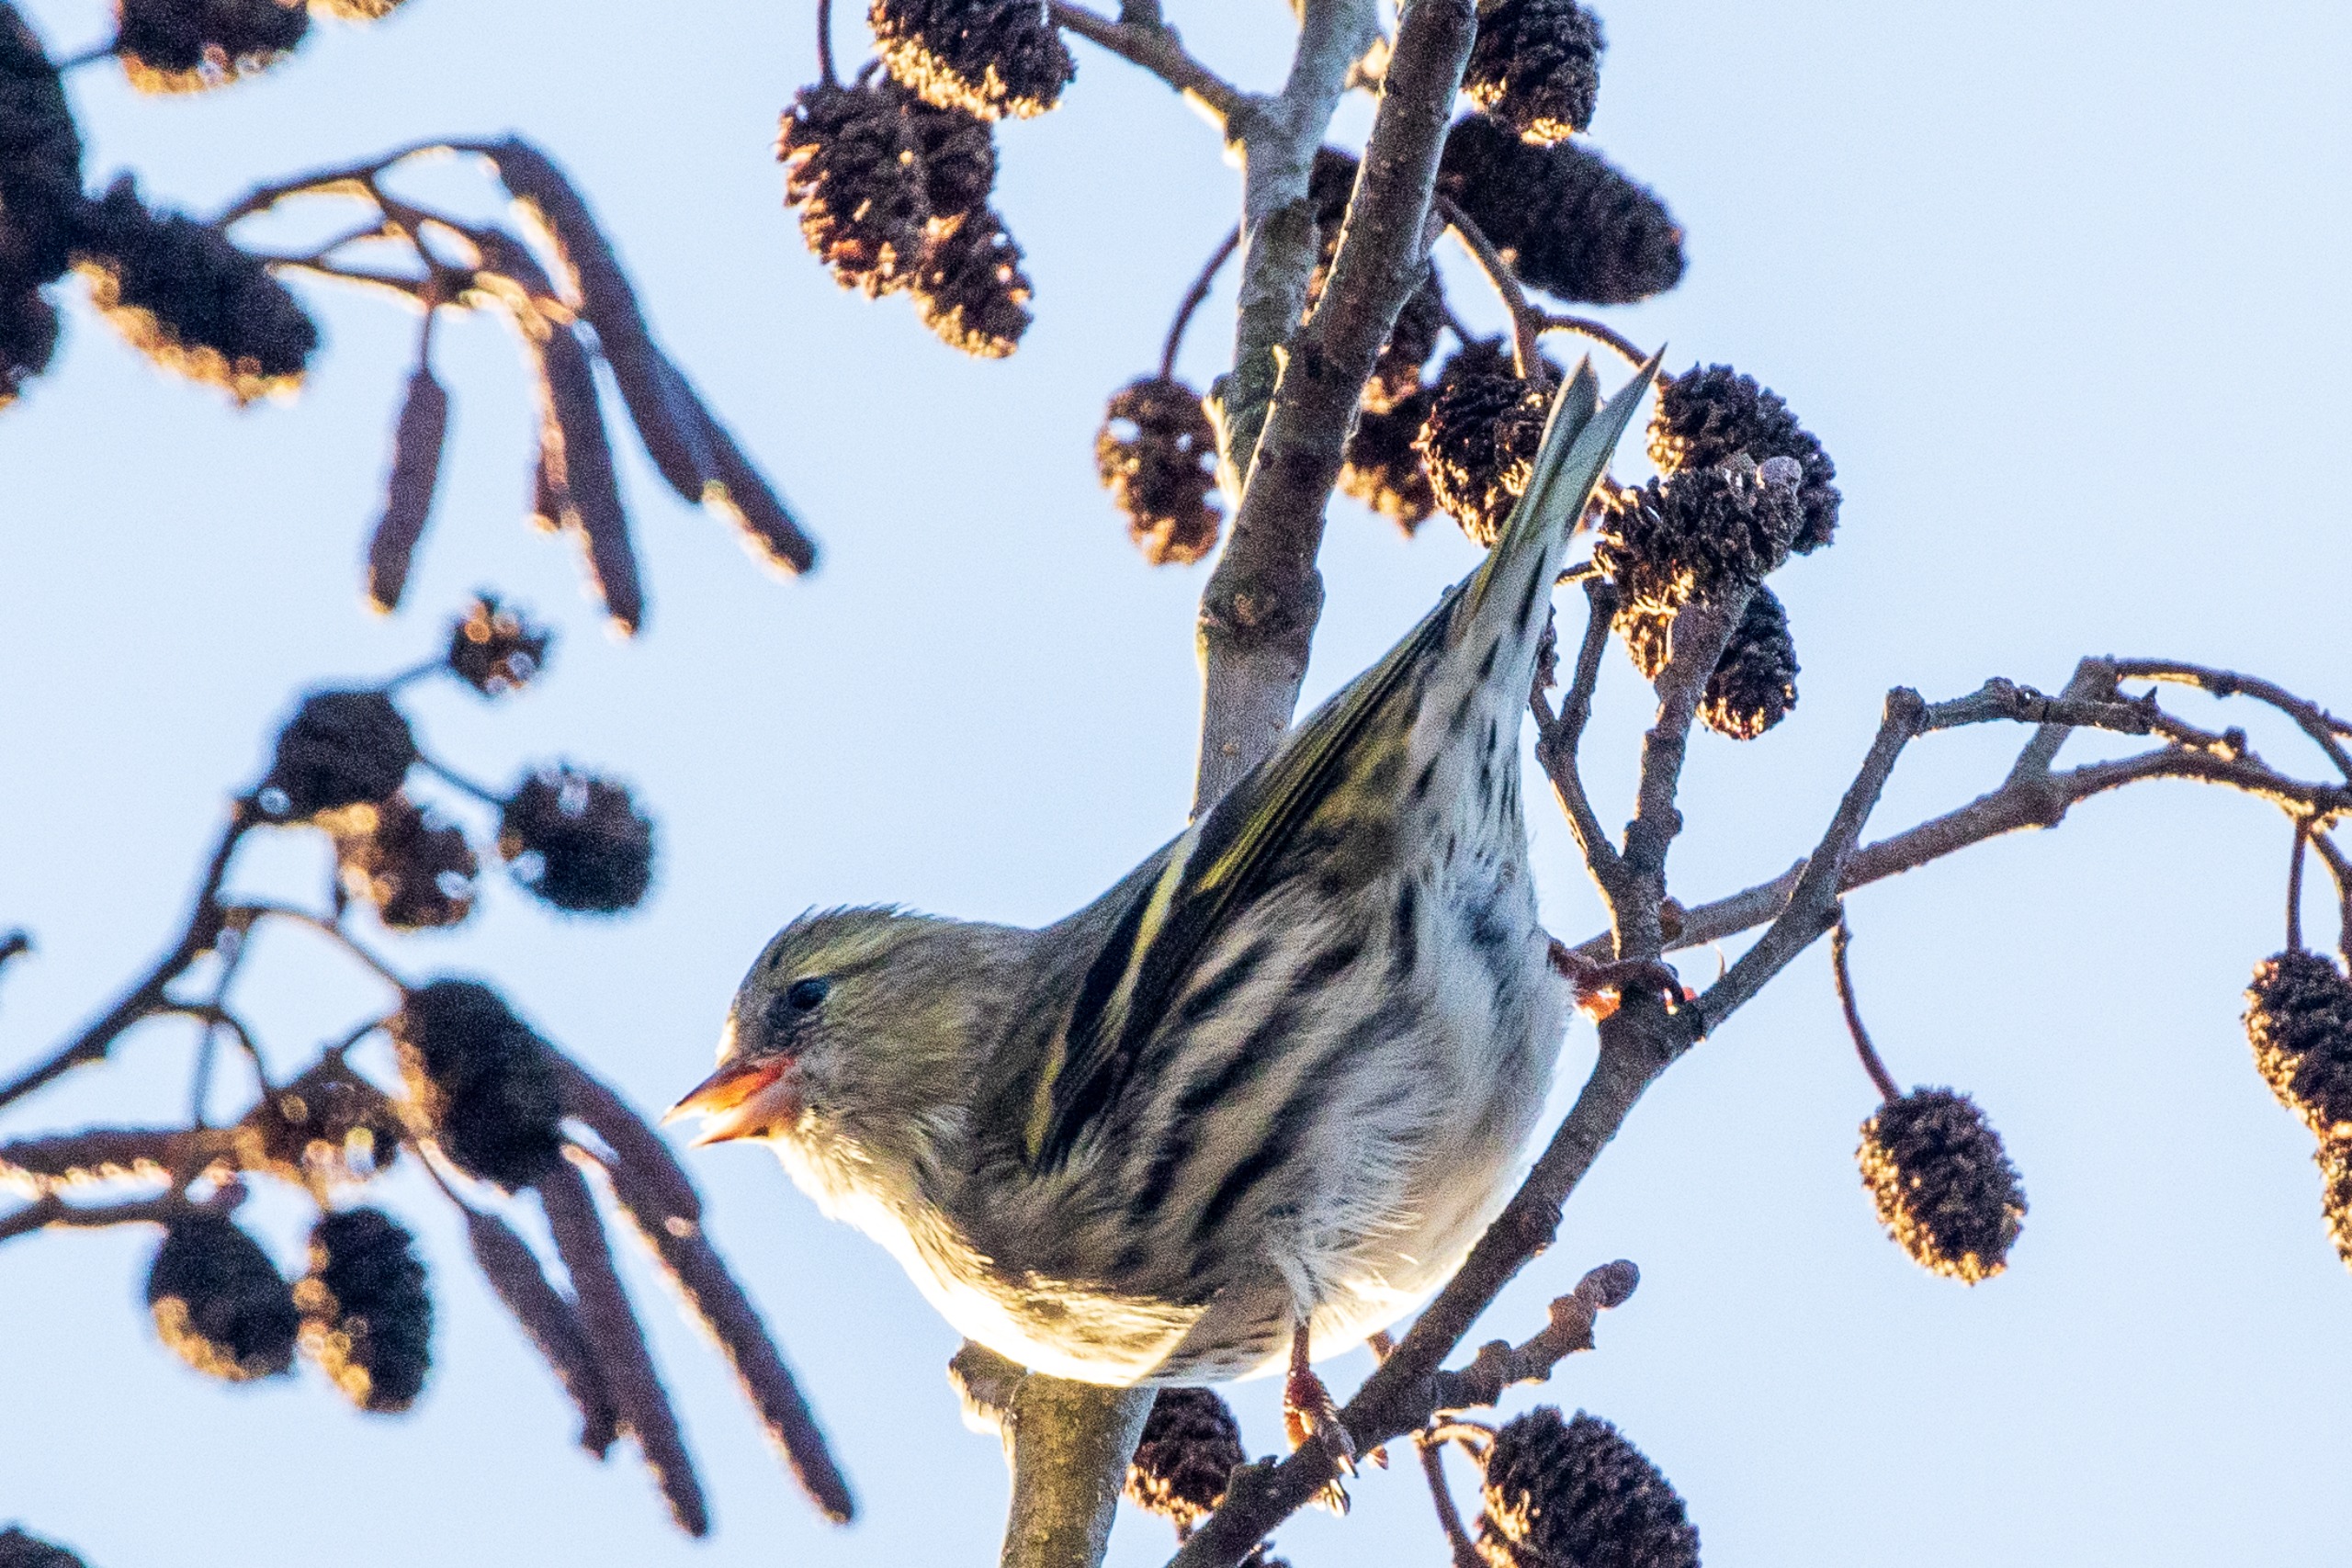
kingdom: Animalia
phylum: Chordata
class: Aves
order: Passeriformes
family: Fringillidae
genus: Spinus
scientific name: Spinus spinus
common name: Grønsisken
